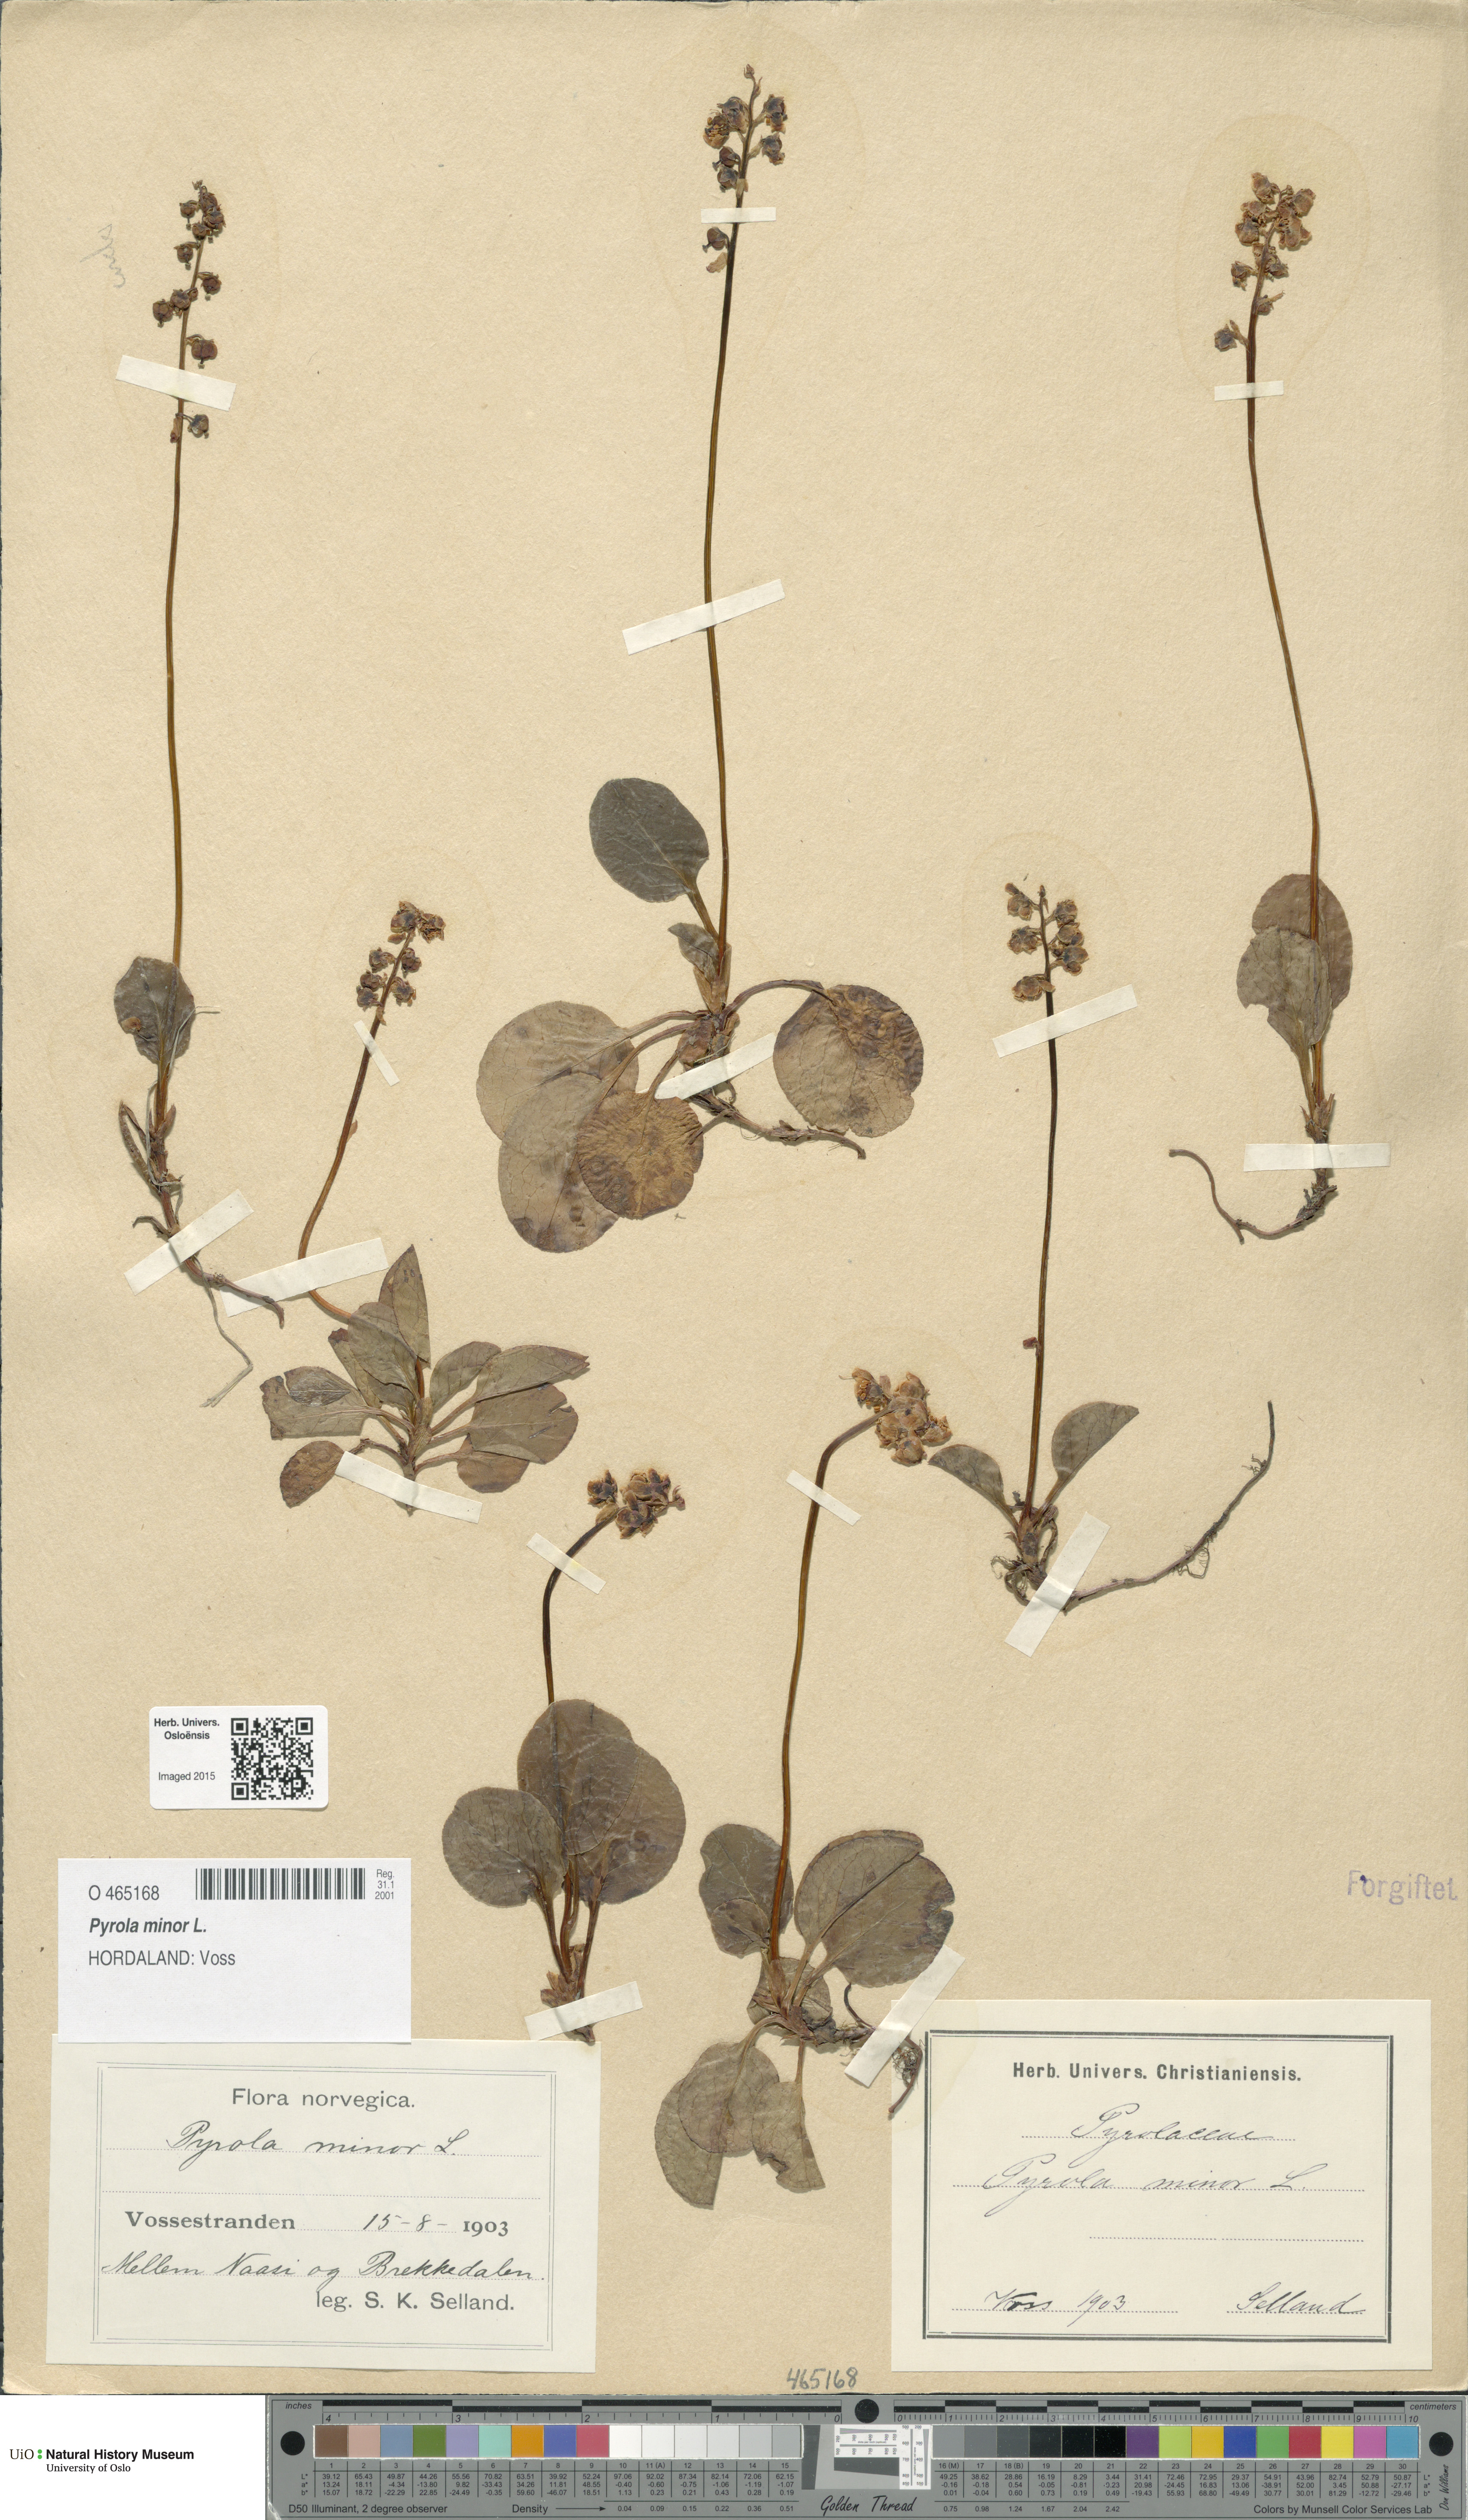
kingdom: Plantae
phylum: Tracheophyta
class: Magnoliopsida
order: Ericales
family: Ericaceae
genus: Pyrola
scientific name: Pyrola minor
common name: Common wintergreen
